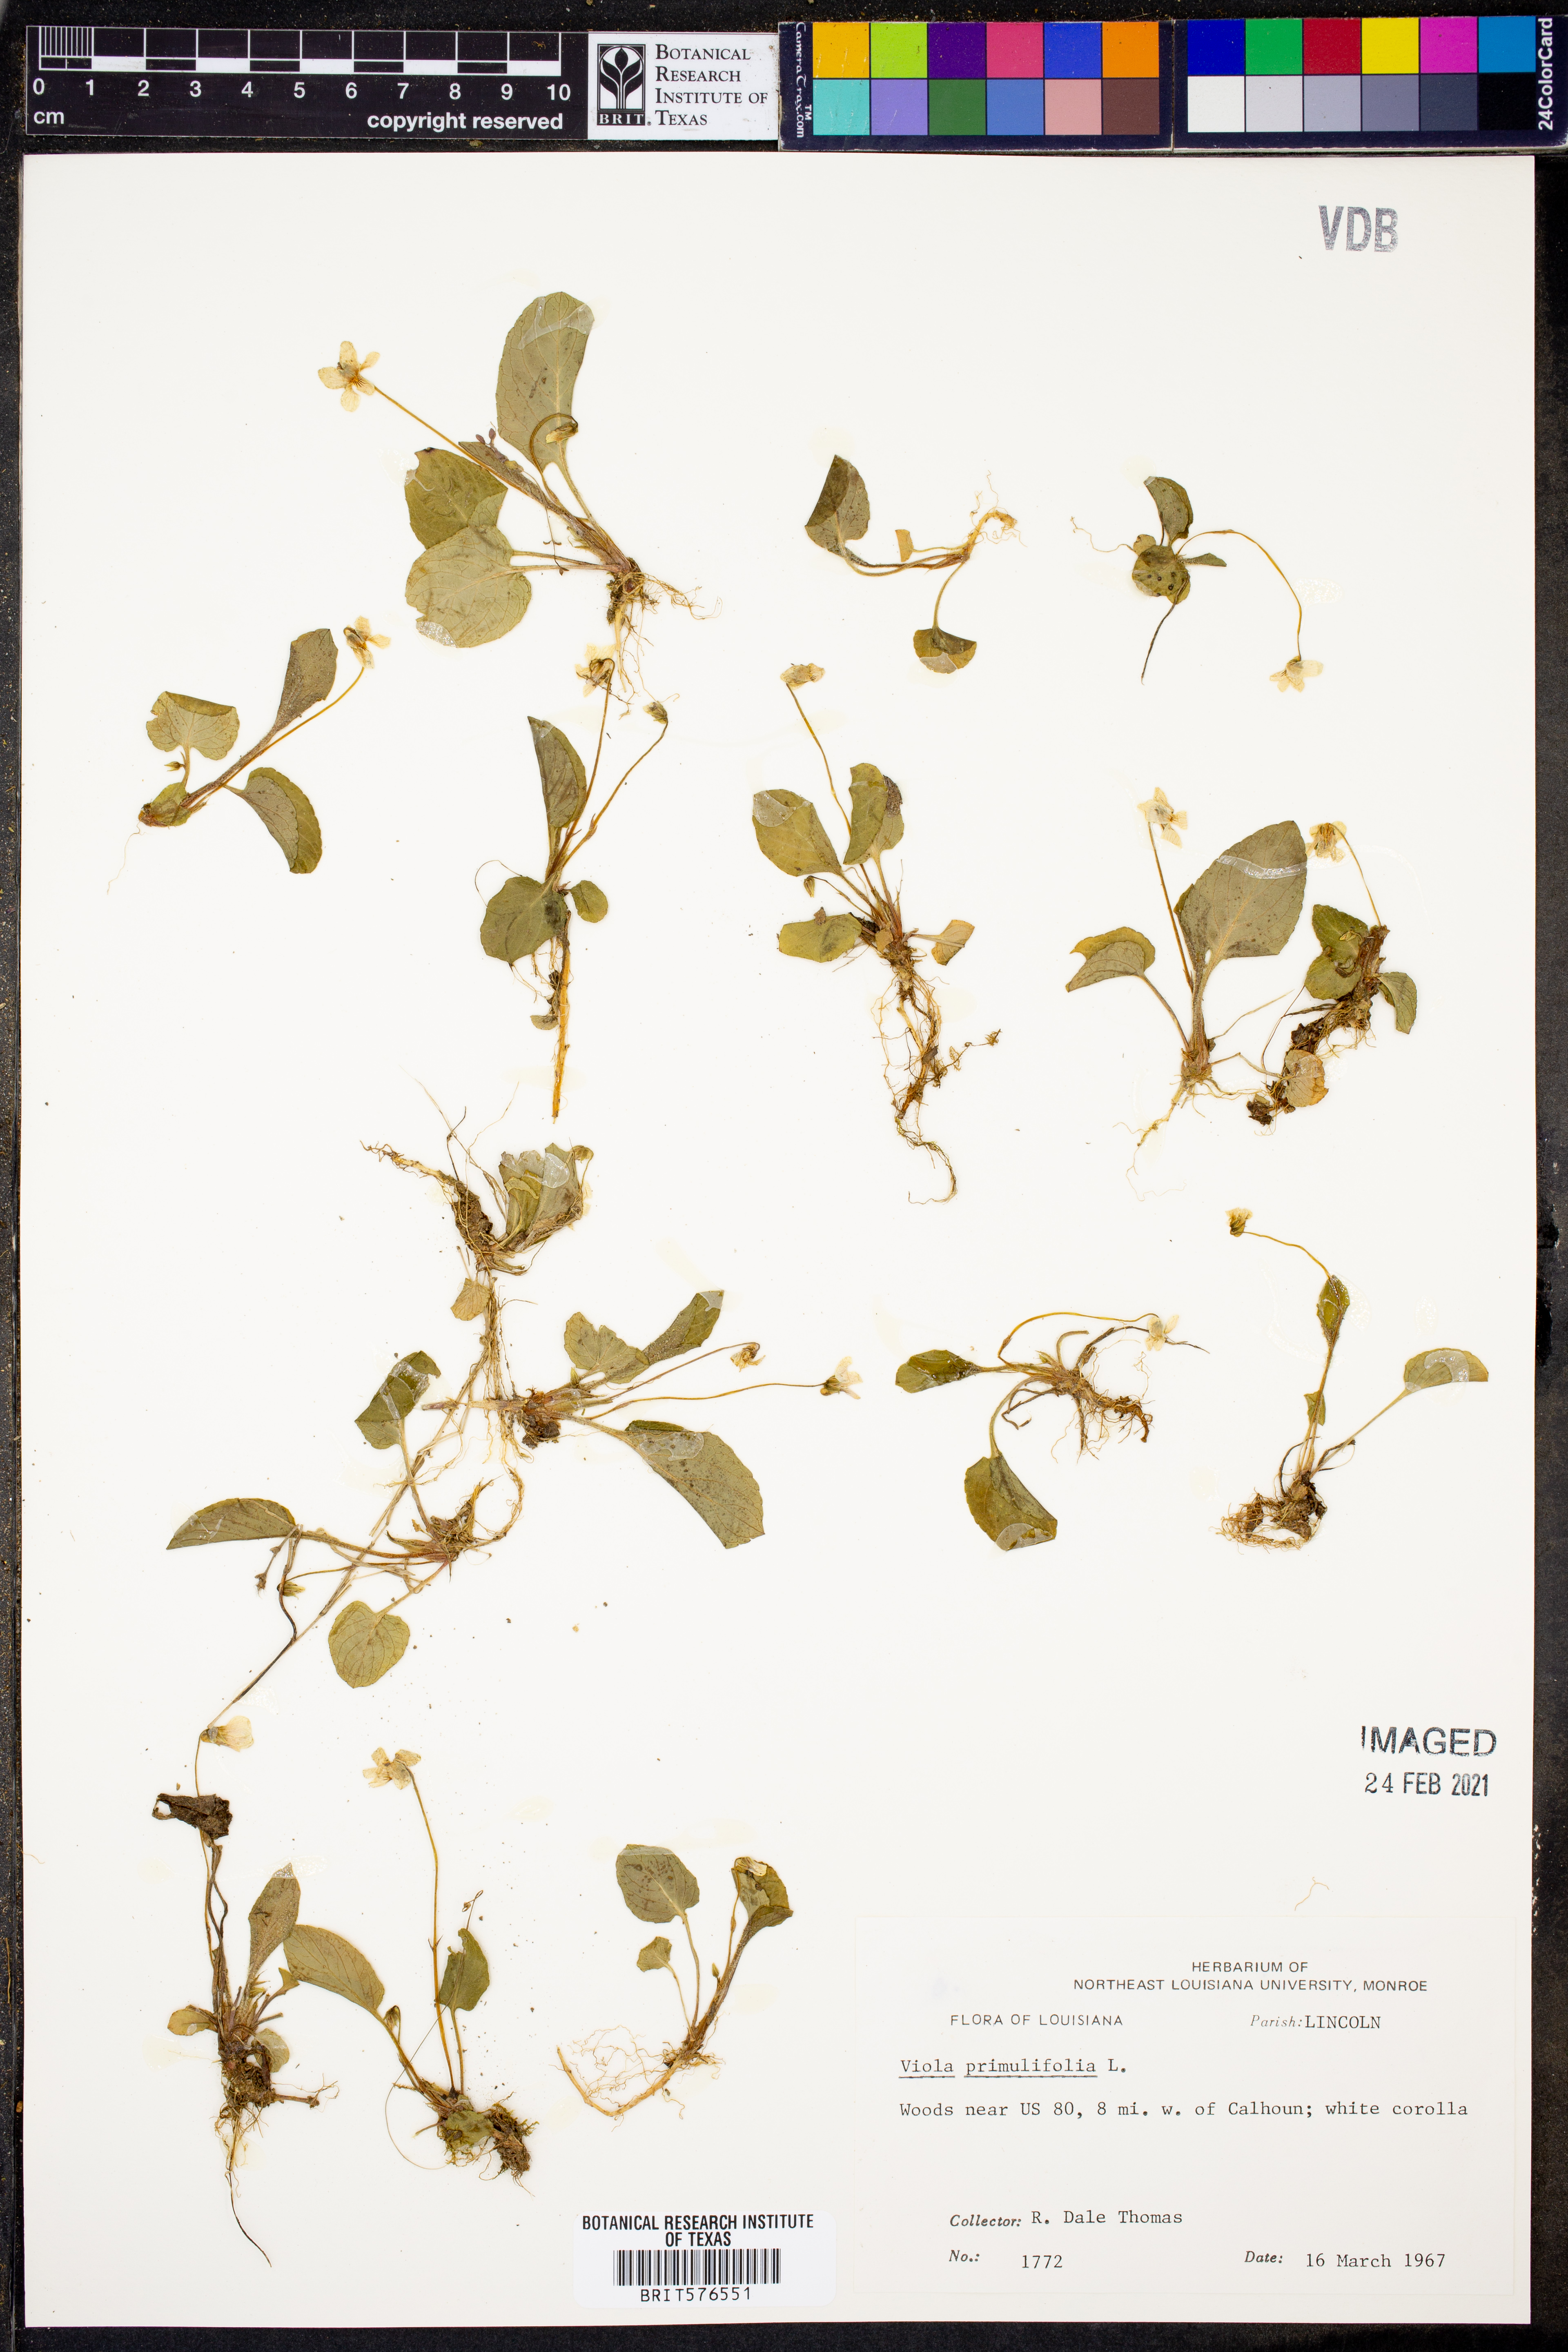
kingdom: Plantae
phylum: Tracheophyta
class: Magnoliopsida
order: Malpighiales
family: Violaceae
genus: Viola
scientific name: Viola primulifolia
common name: Primrose-leaf violet
